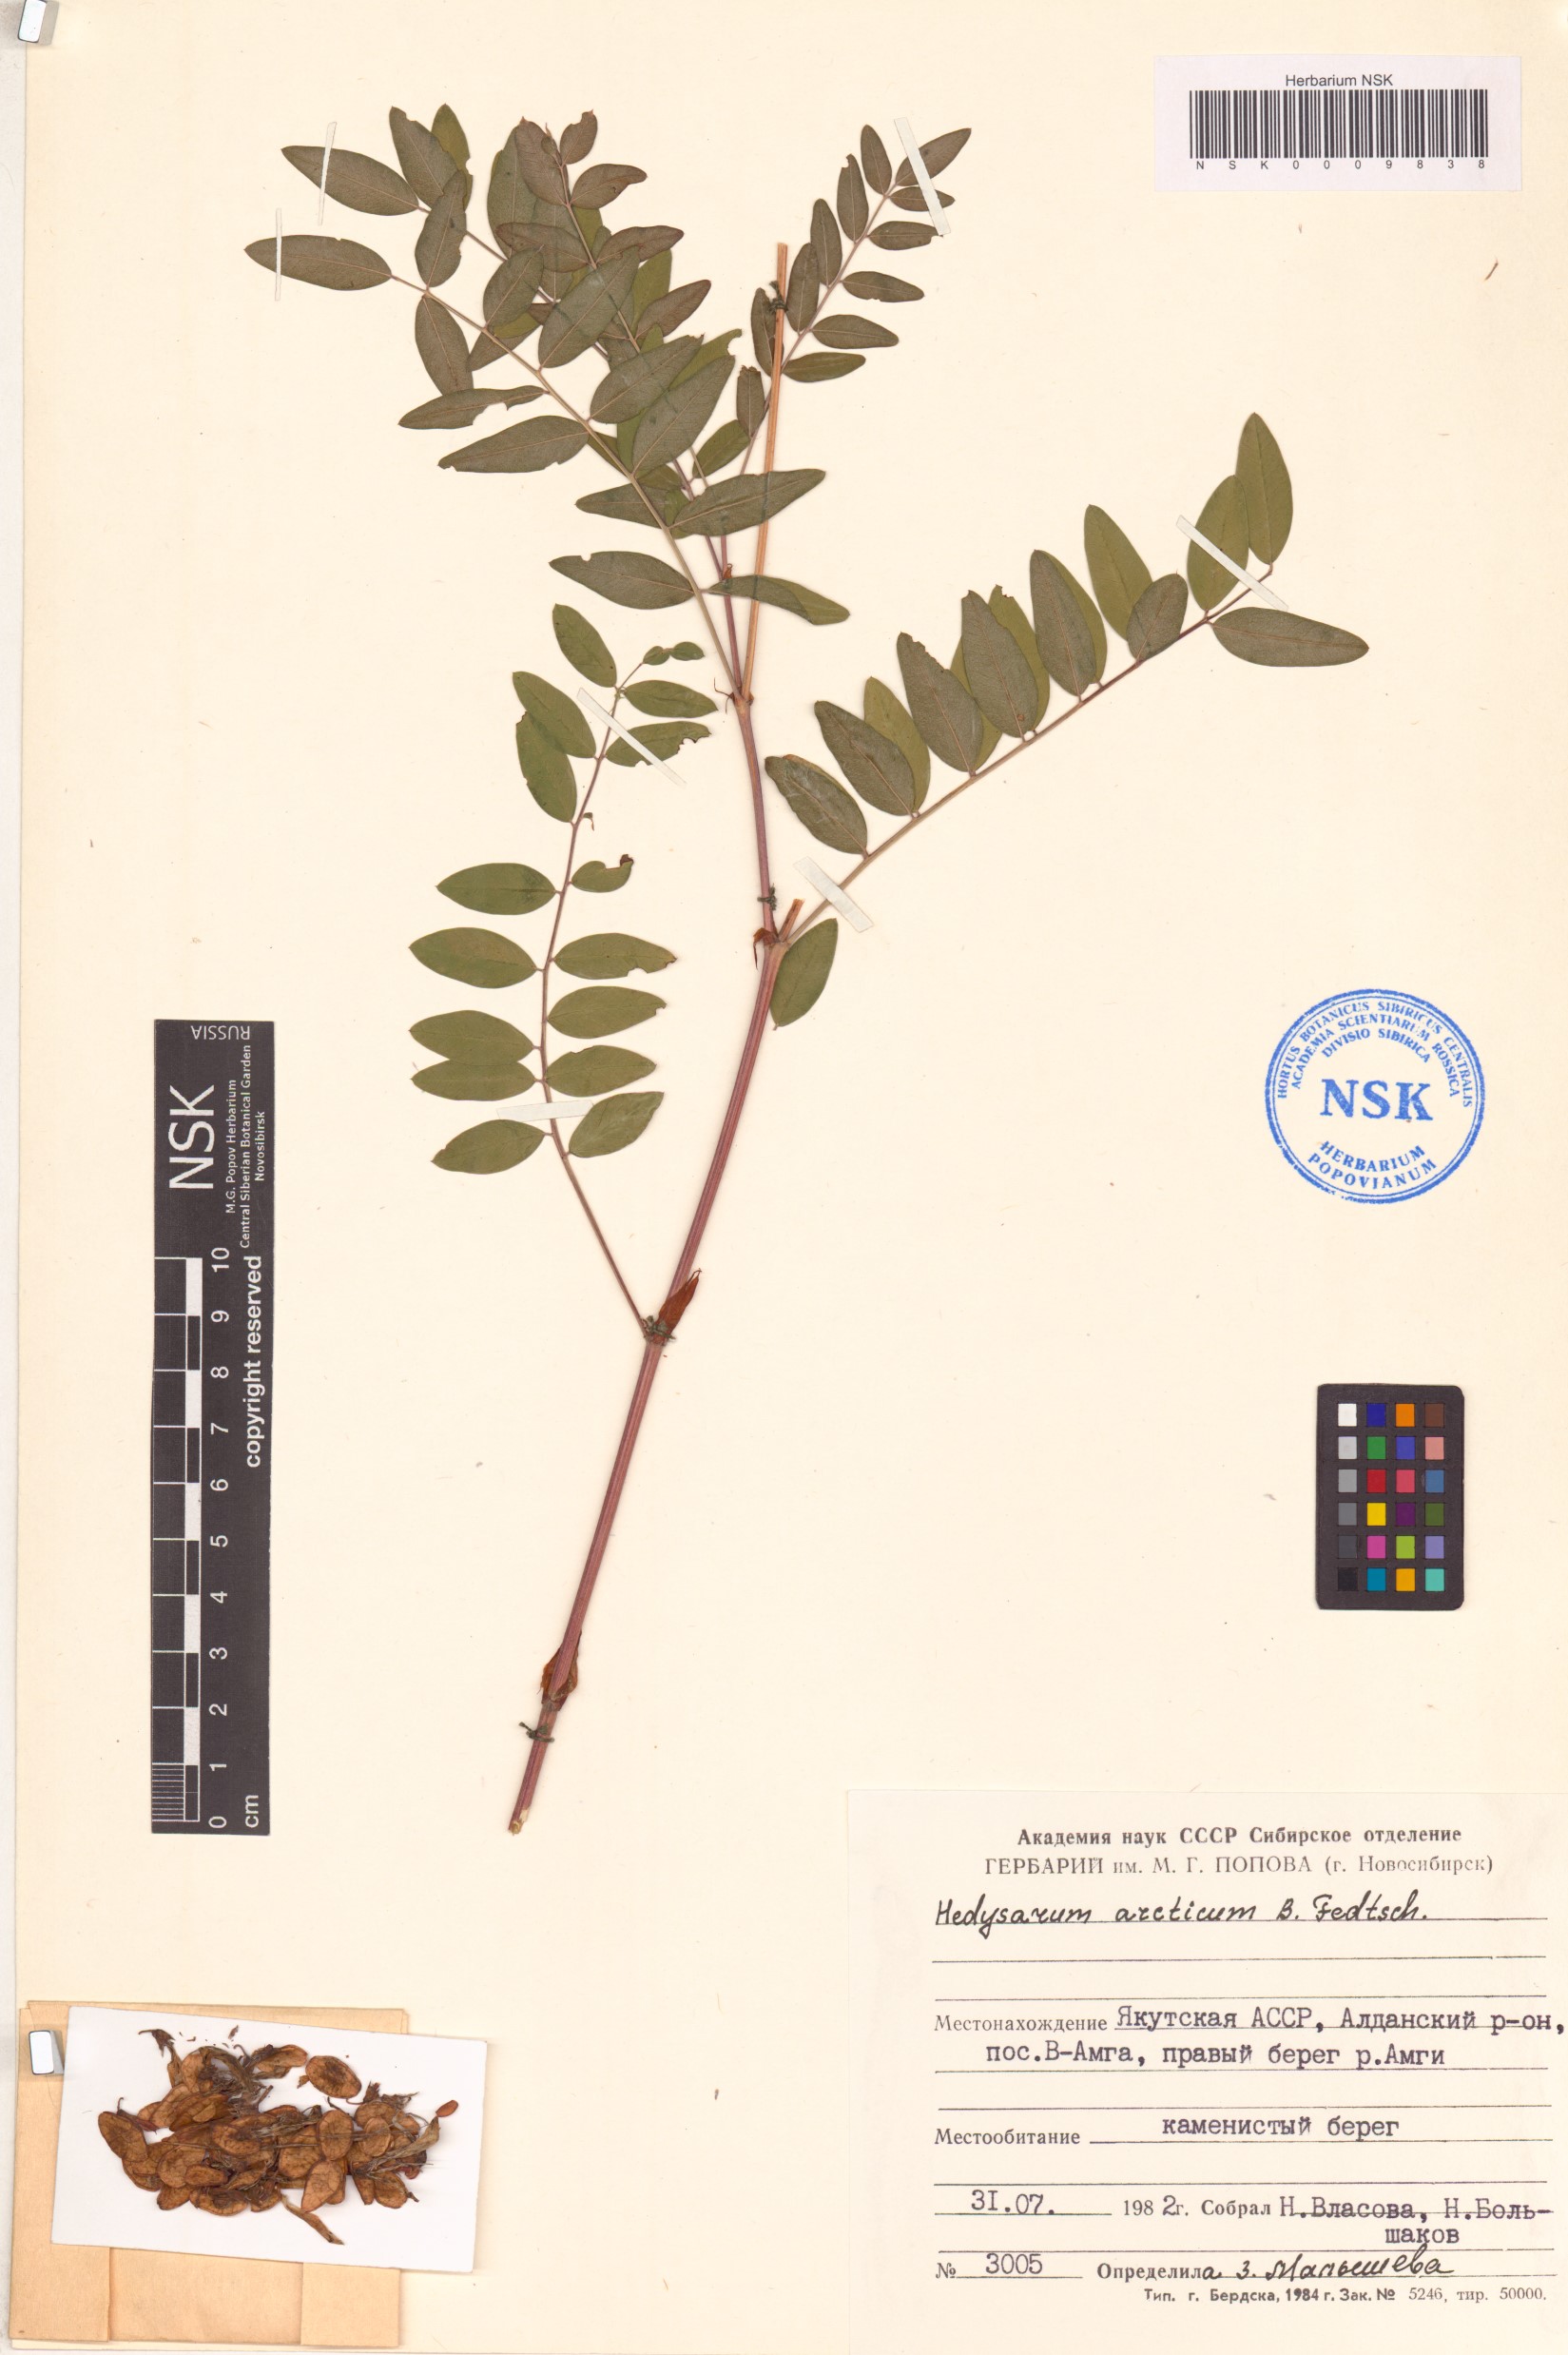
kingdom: Plantae
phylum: Tracheophyta
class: Magnoliopsida
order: Fabales
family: Fabaceae
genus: Hedysarum
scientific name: Hedysarum hedysaroides
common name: Alpine french-honeysuckle
